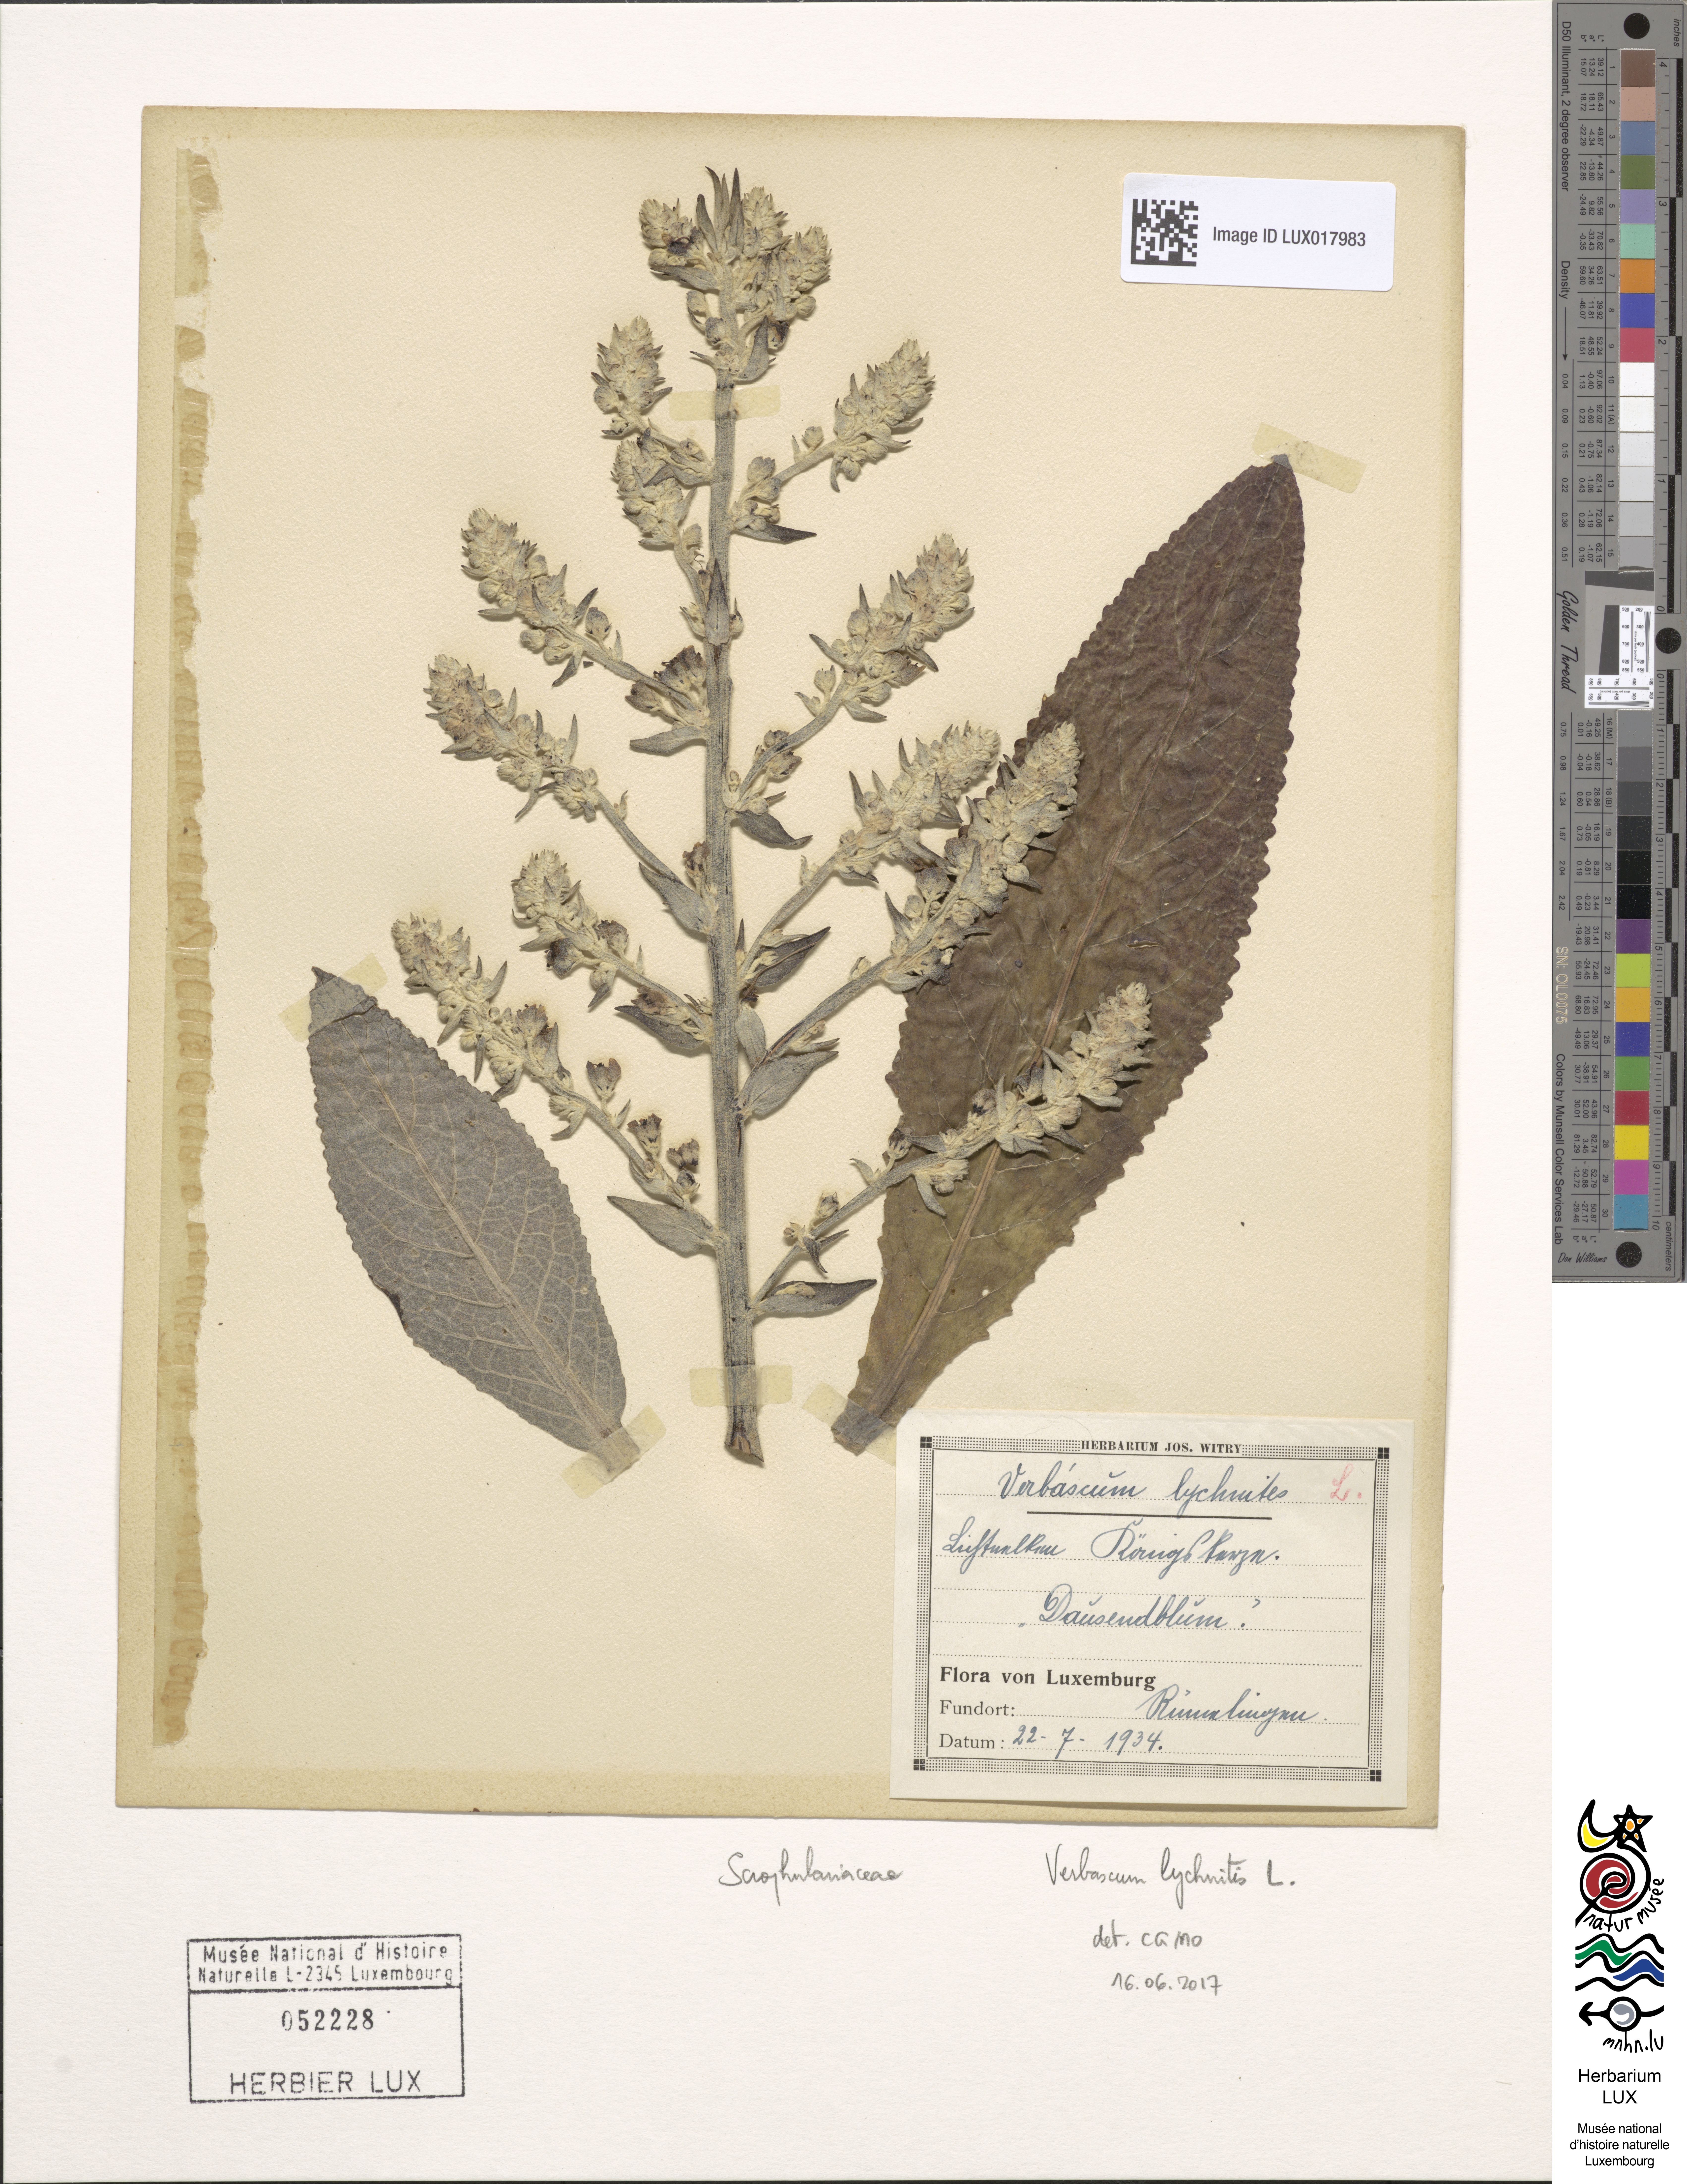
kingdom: Plantae
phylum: Tracheophyta
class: Magnoliopsida
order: Lamiales
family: Scrophulariaceae
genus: Verbascum
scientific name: Verbascum lychnitis
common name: White mullein
